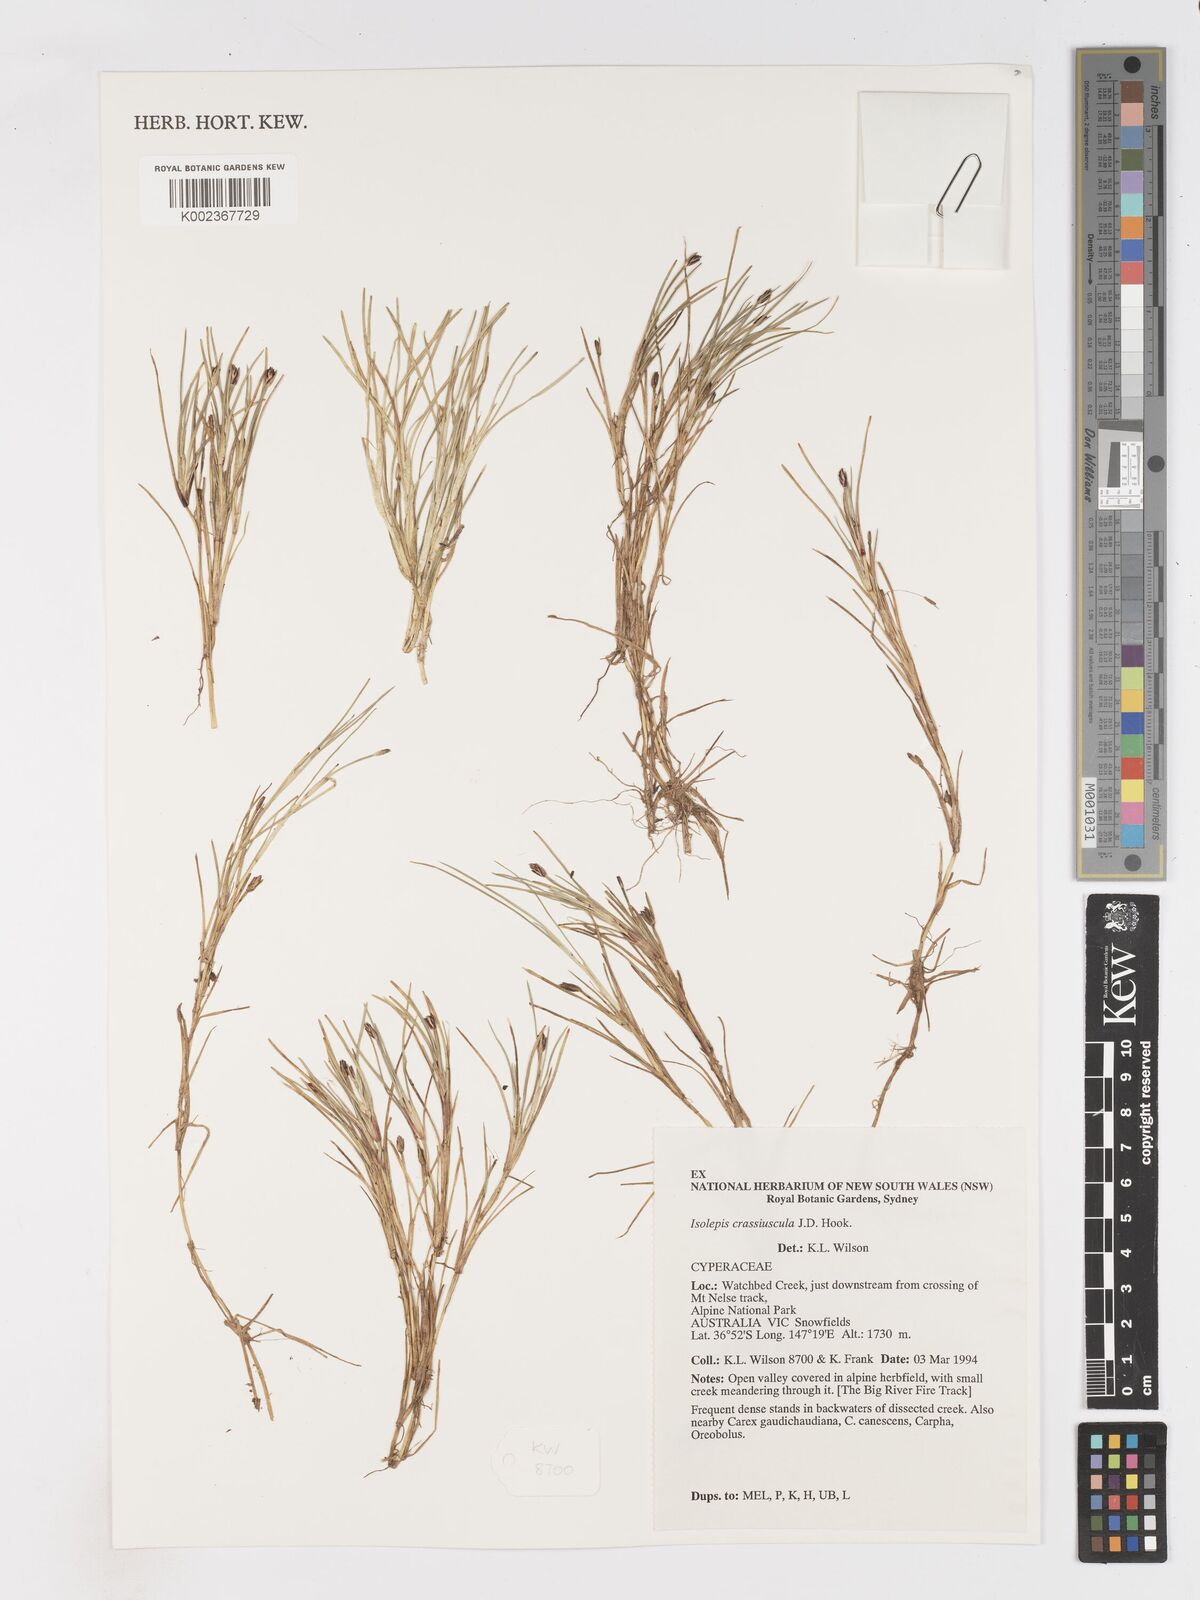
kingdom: Plantae
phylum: Tracheophyta
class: Liliopsida
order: Poales
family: Cyperaceae
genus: Isolepis
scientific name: Isolepis crassiuscula
